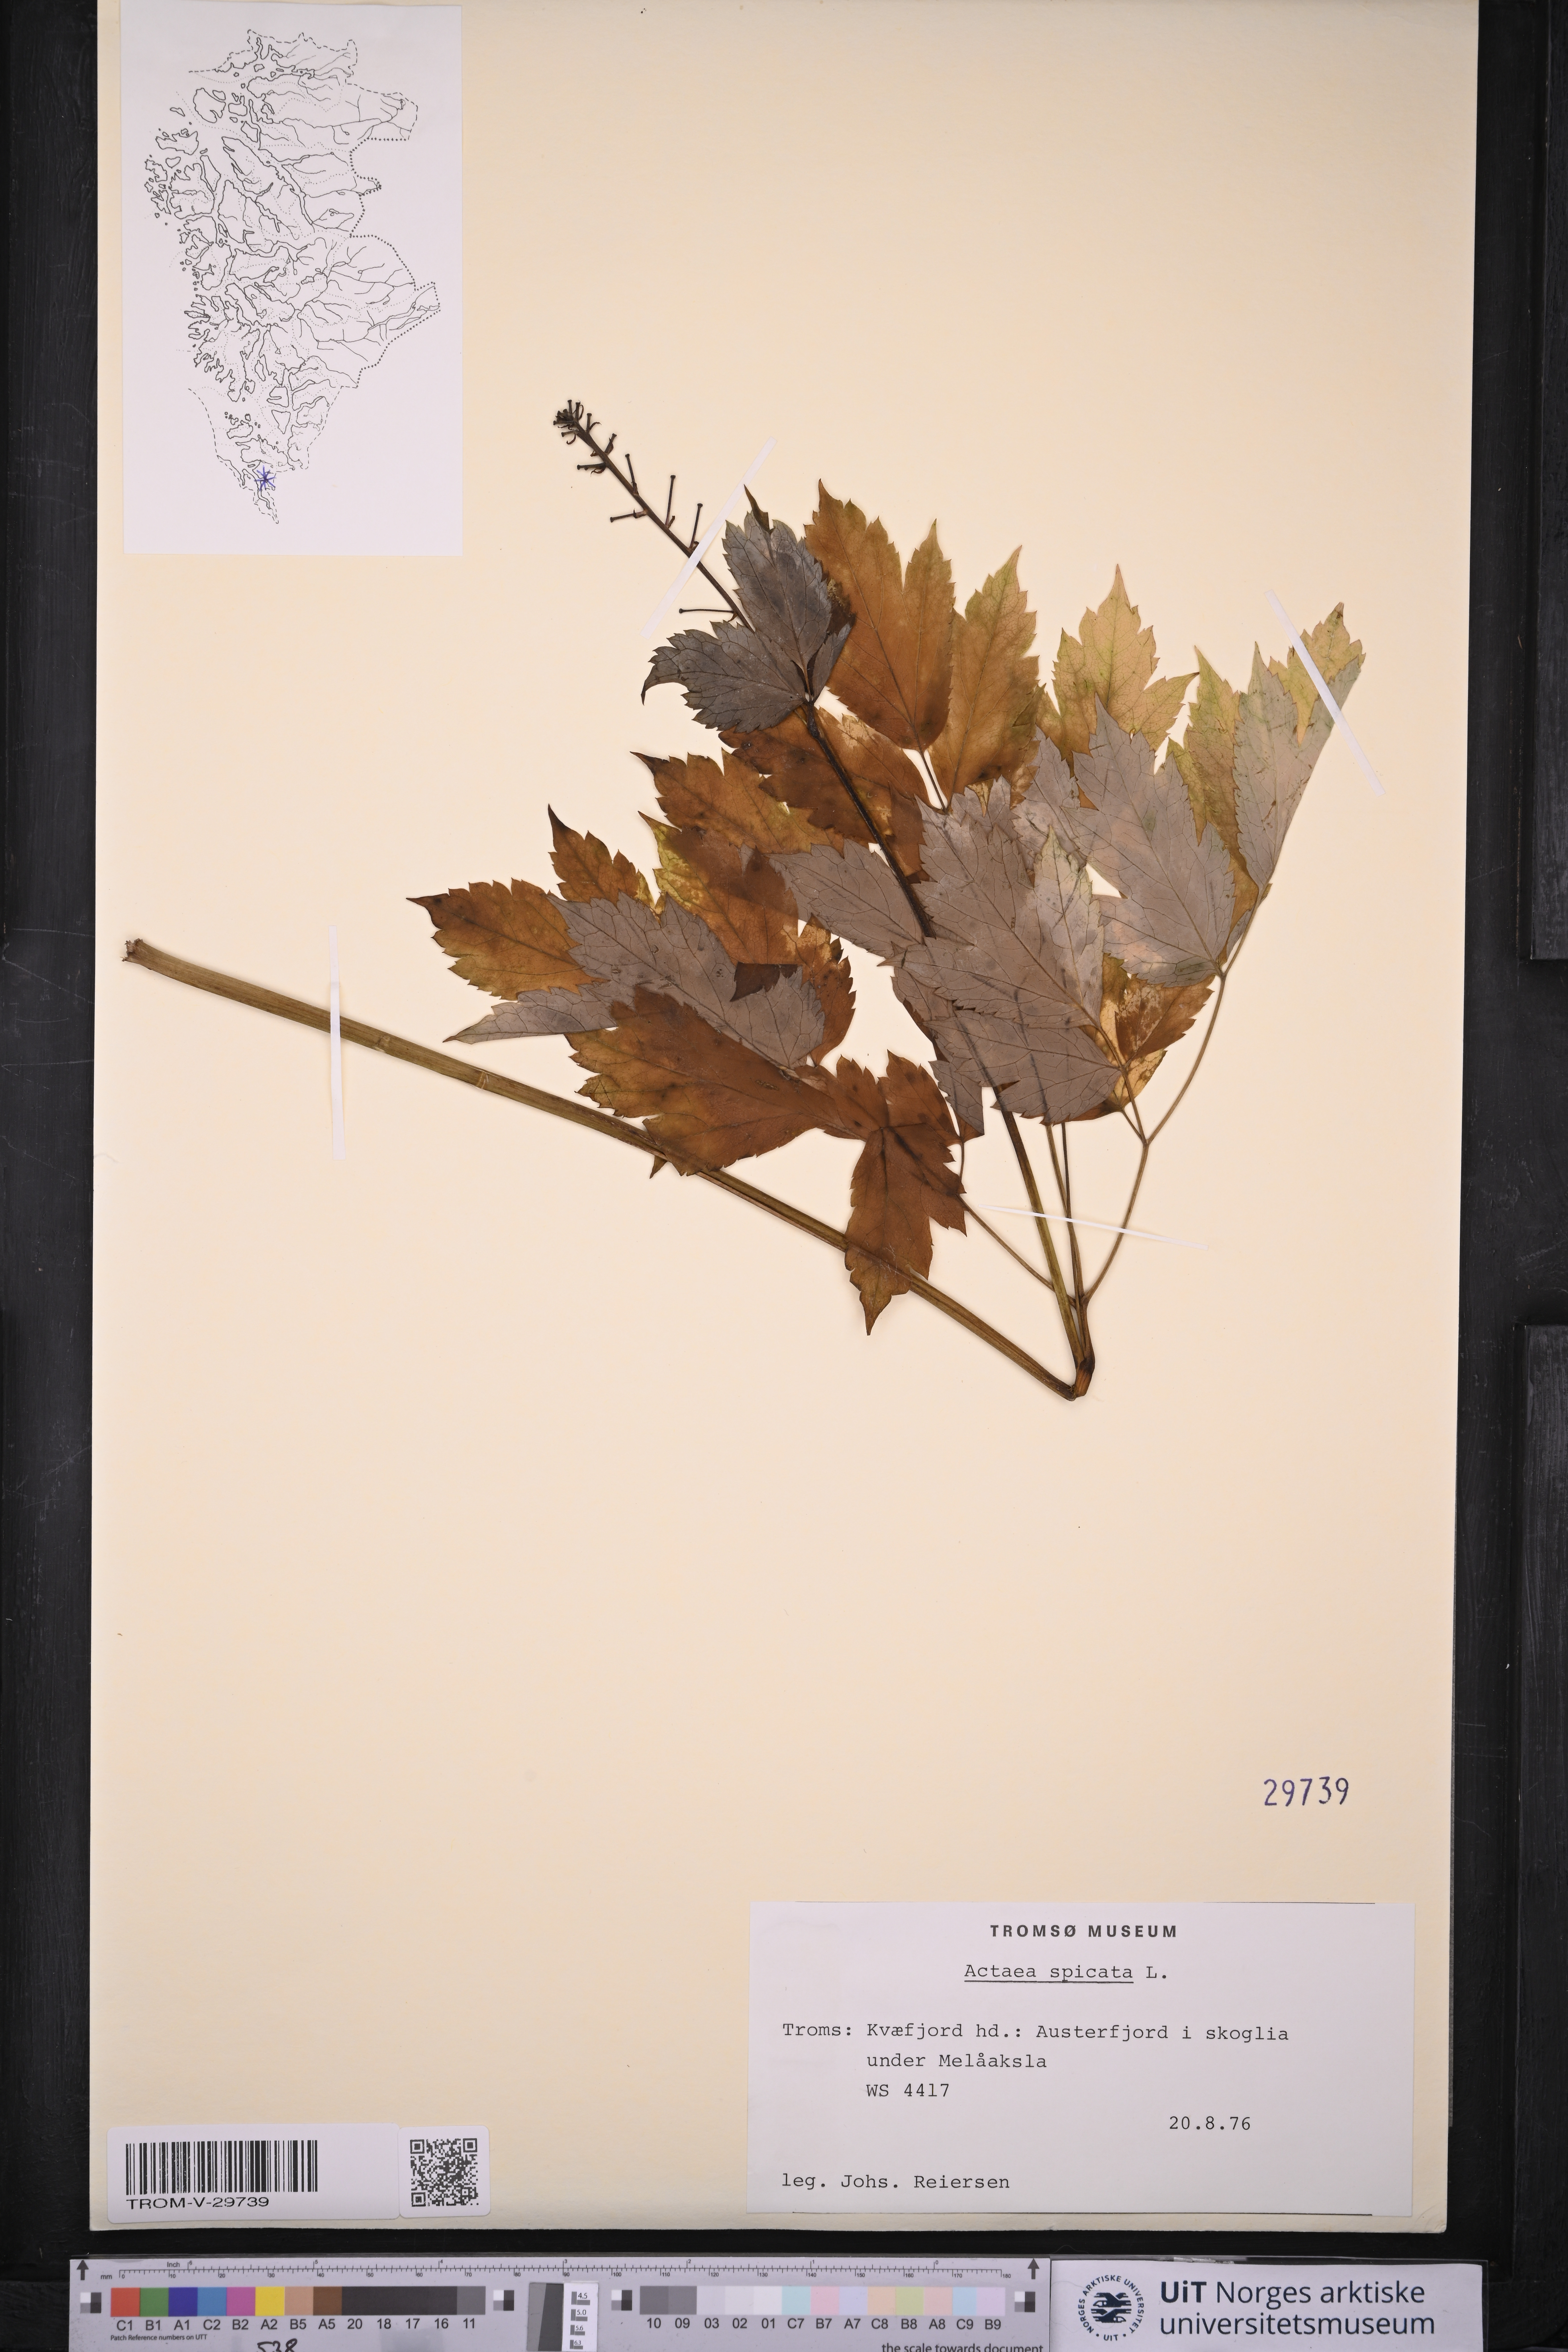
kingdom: Plantae
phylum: Tracheophyta
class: Magnoliopsida
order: Ranunculales
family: Ranunculaceae
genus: Actaea
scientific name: Actaea spicata
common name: Baneberry
